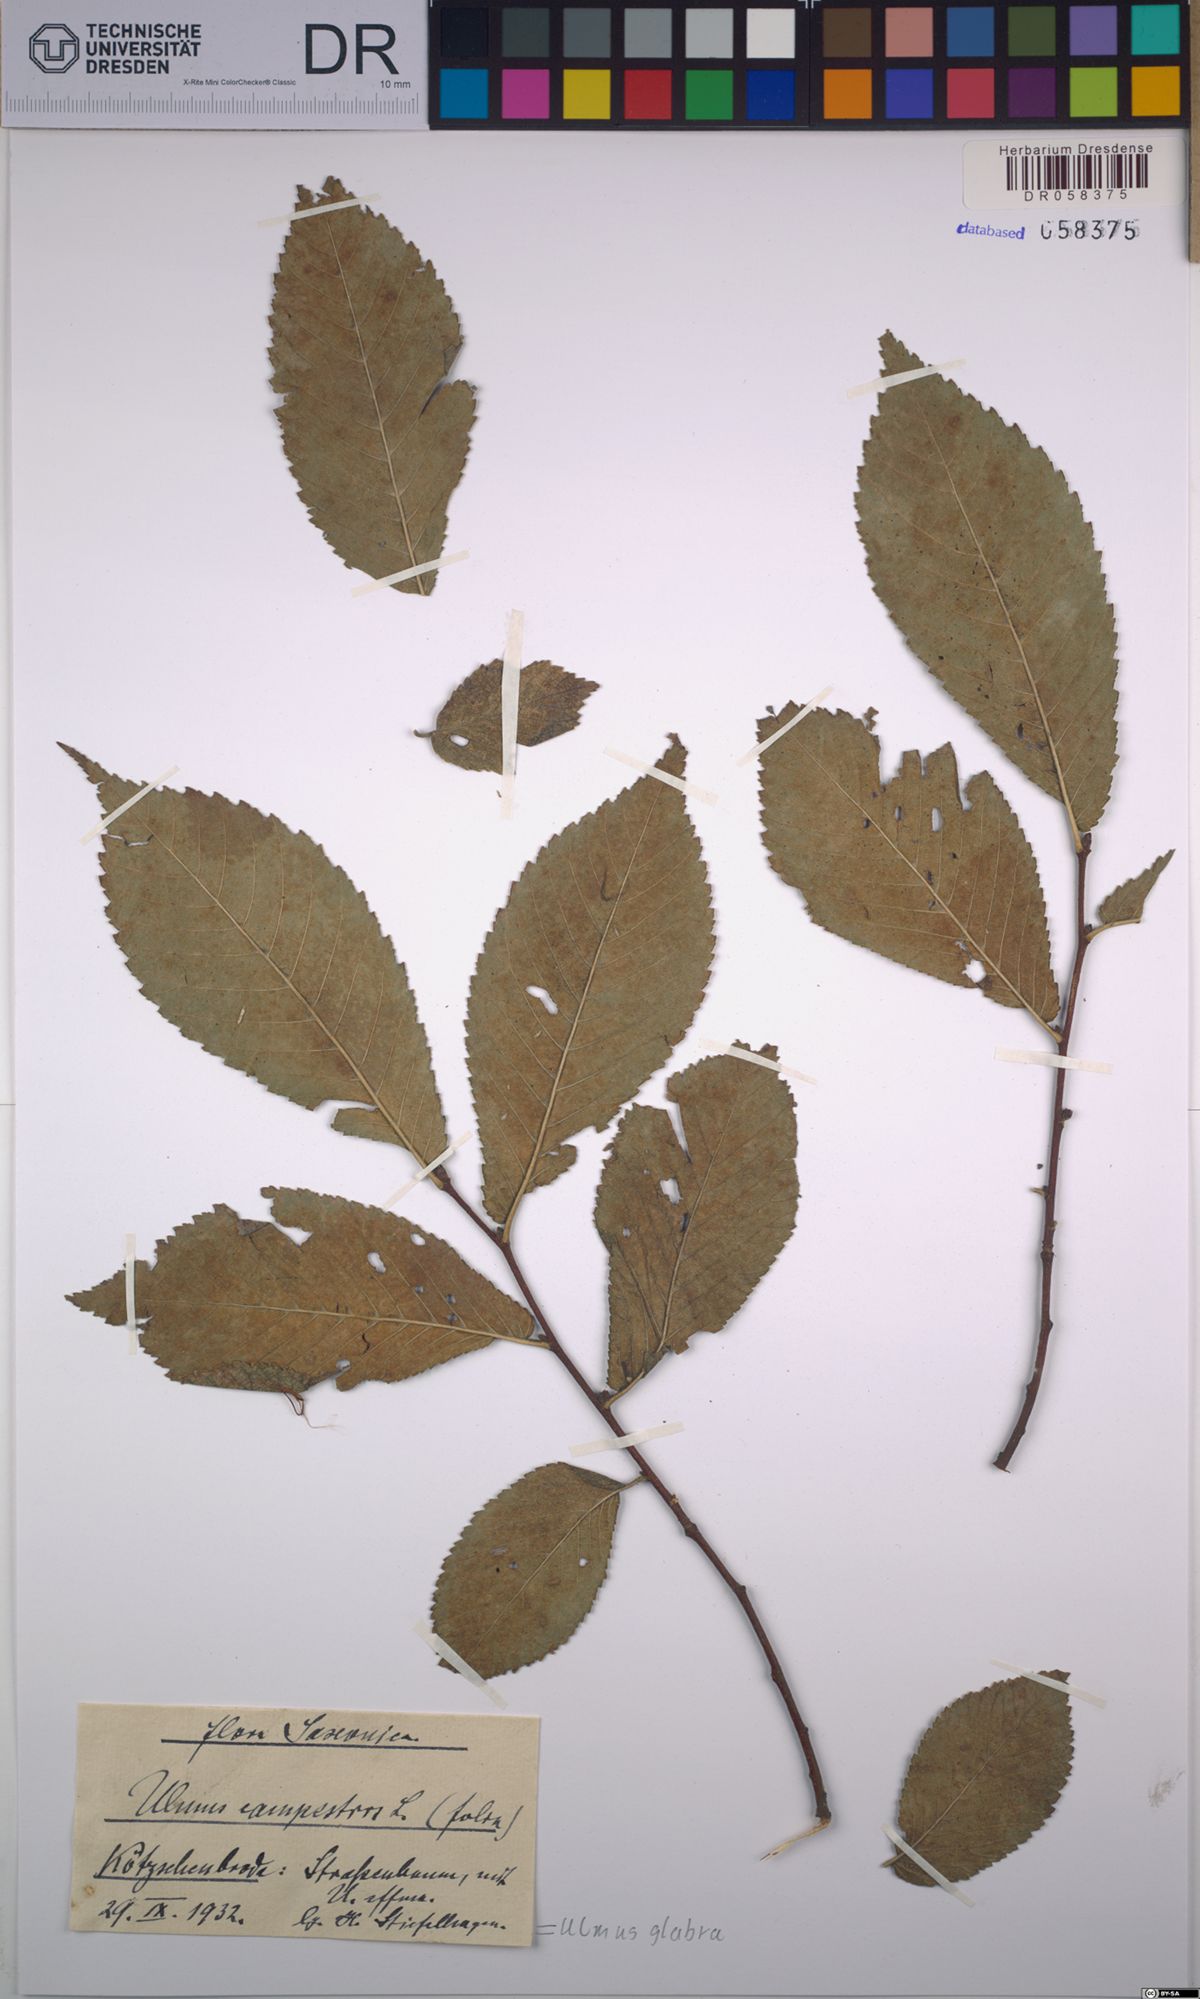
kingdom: Plantae
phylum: Tracheophyta
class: Magnoliopsida
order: Rosales
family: Ulmaceae
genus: Ulmus
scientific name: Ulmus glabra
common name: Wych elm
